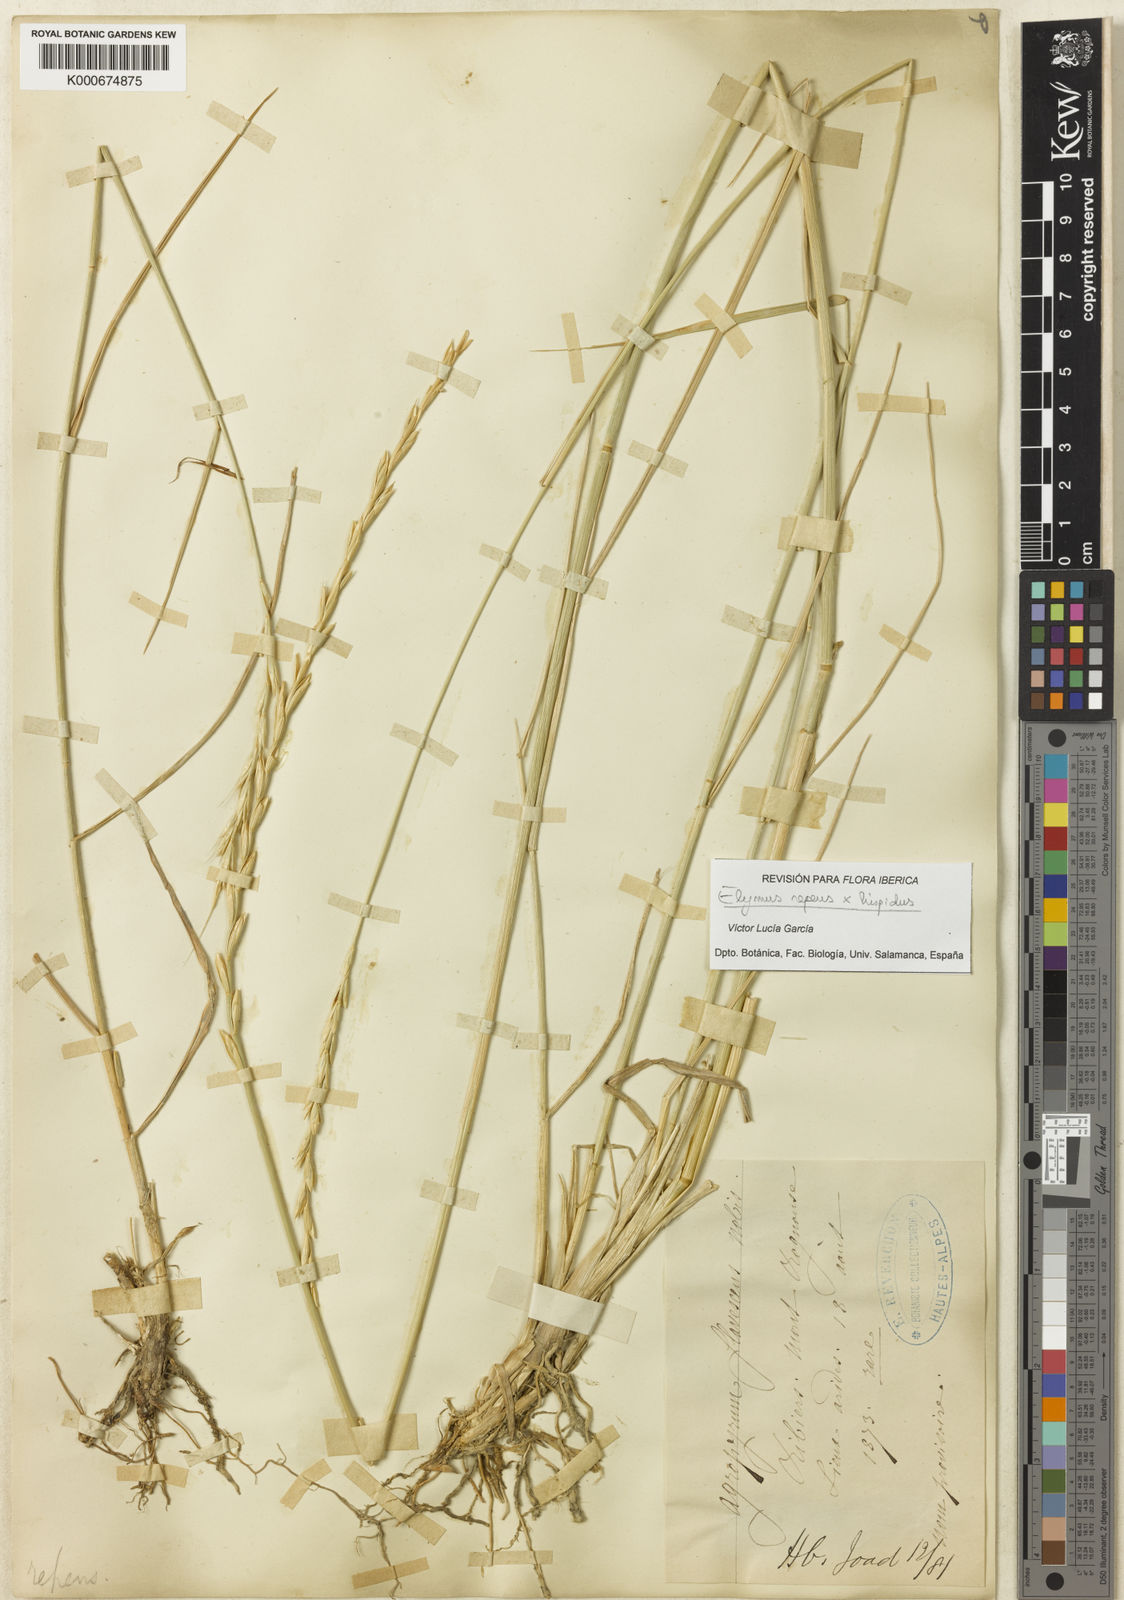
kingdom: Plantae
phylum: Tracheophyta
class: Liliopsida
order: Poales
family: Poaceae
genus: Elymus
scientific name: Elymus repens
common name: Quackgrass
